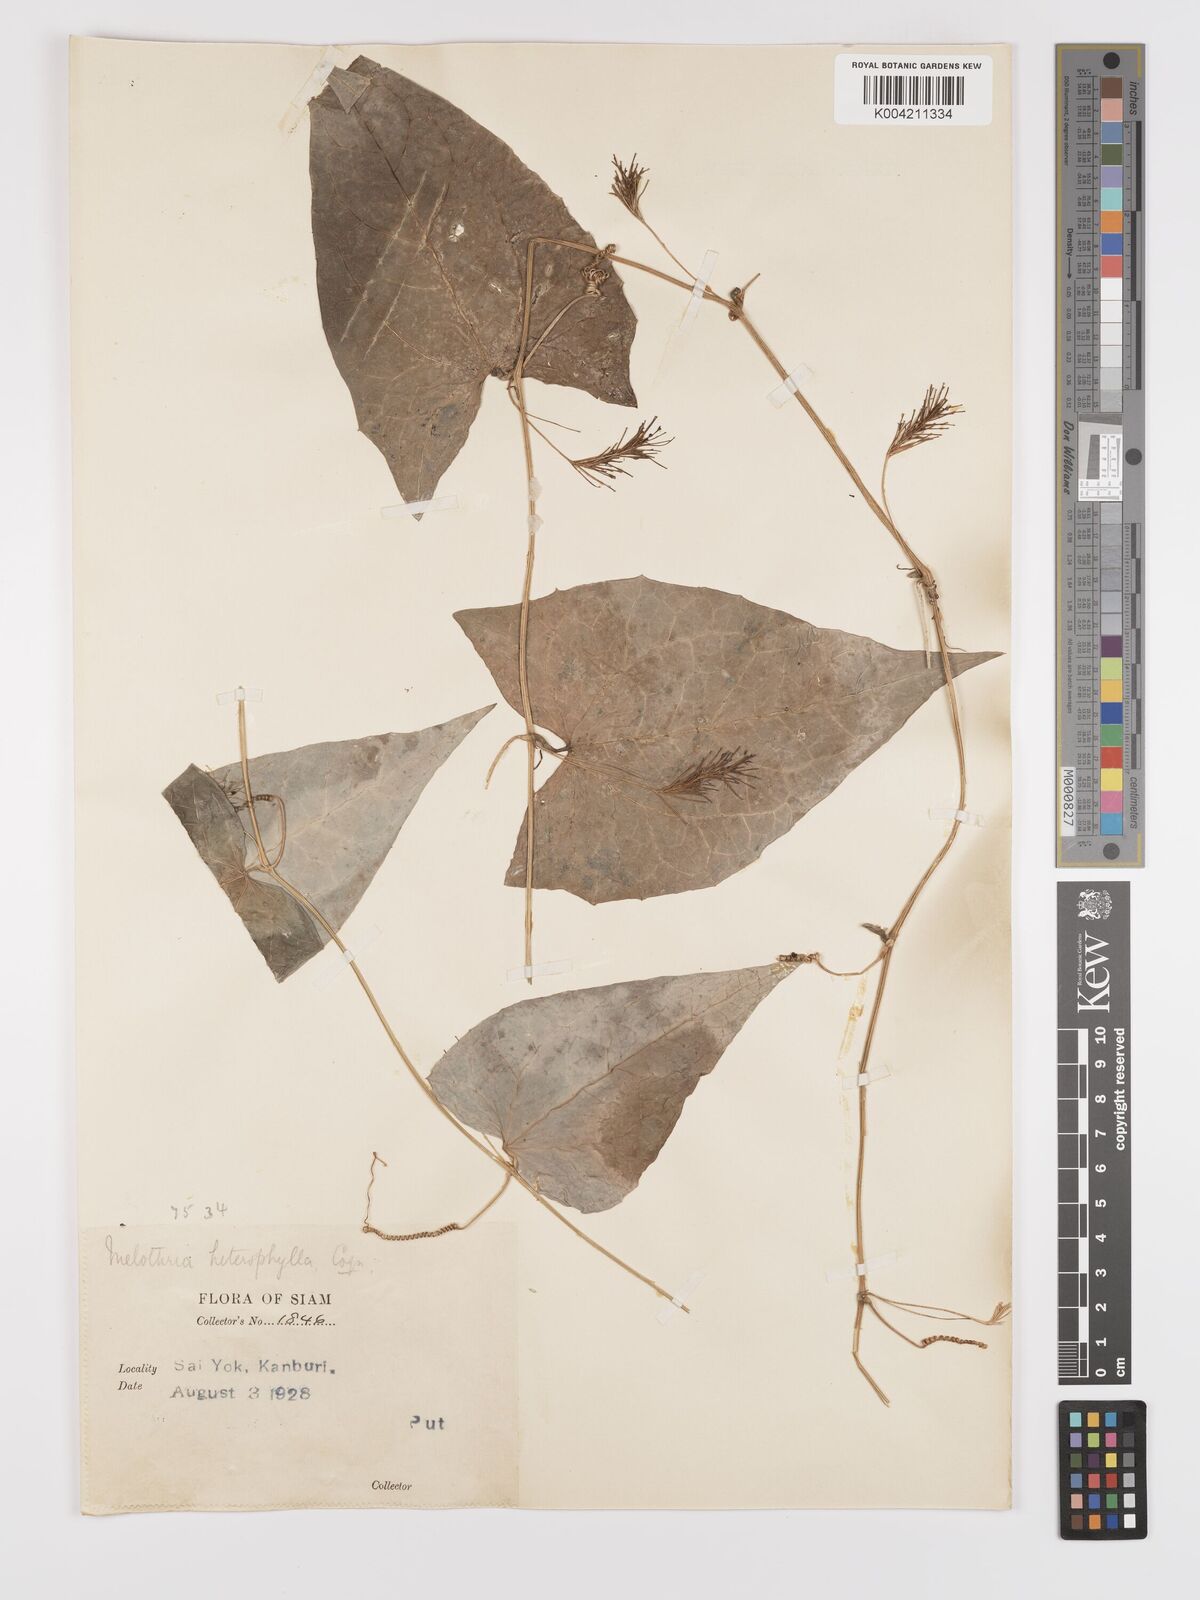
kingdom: Plantae
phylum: Tracheophyta
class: Magnoliopsida
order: Cucurbitales
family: Cucurbitaceae
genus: Solena
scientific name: Solena amplexicaulis
